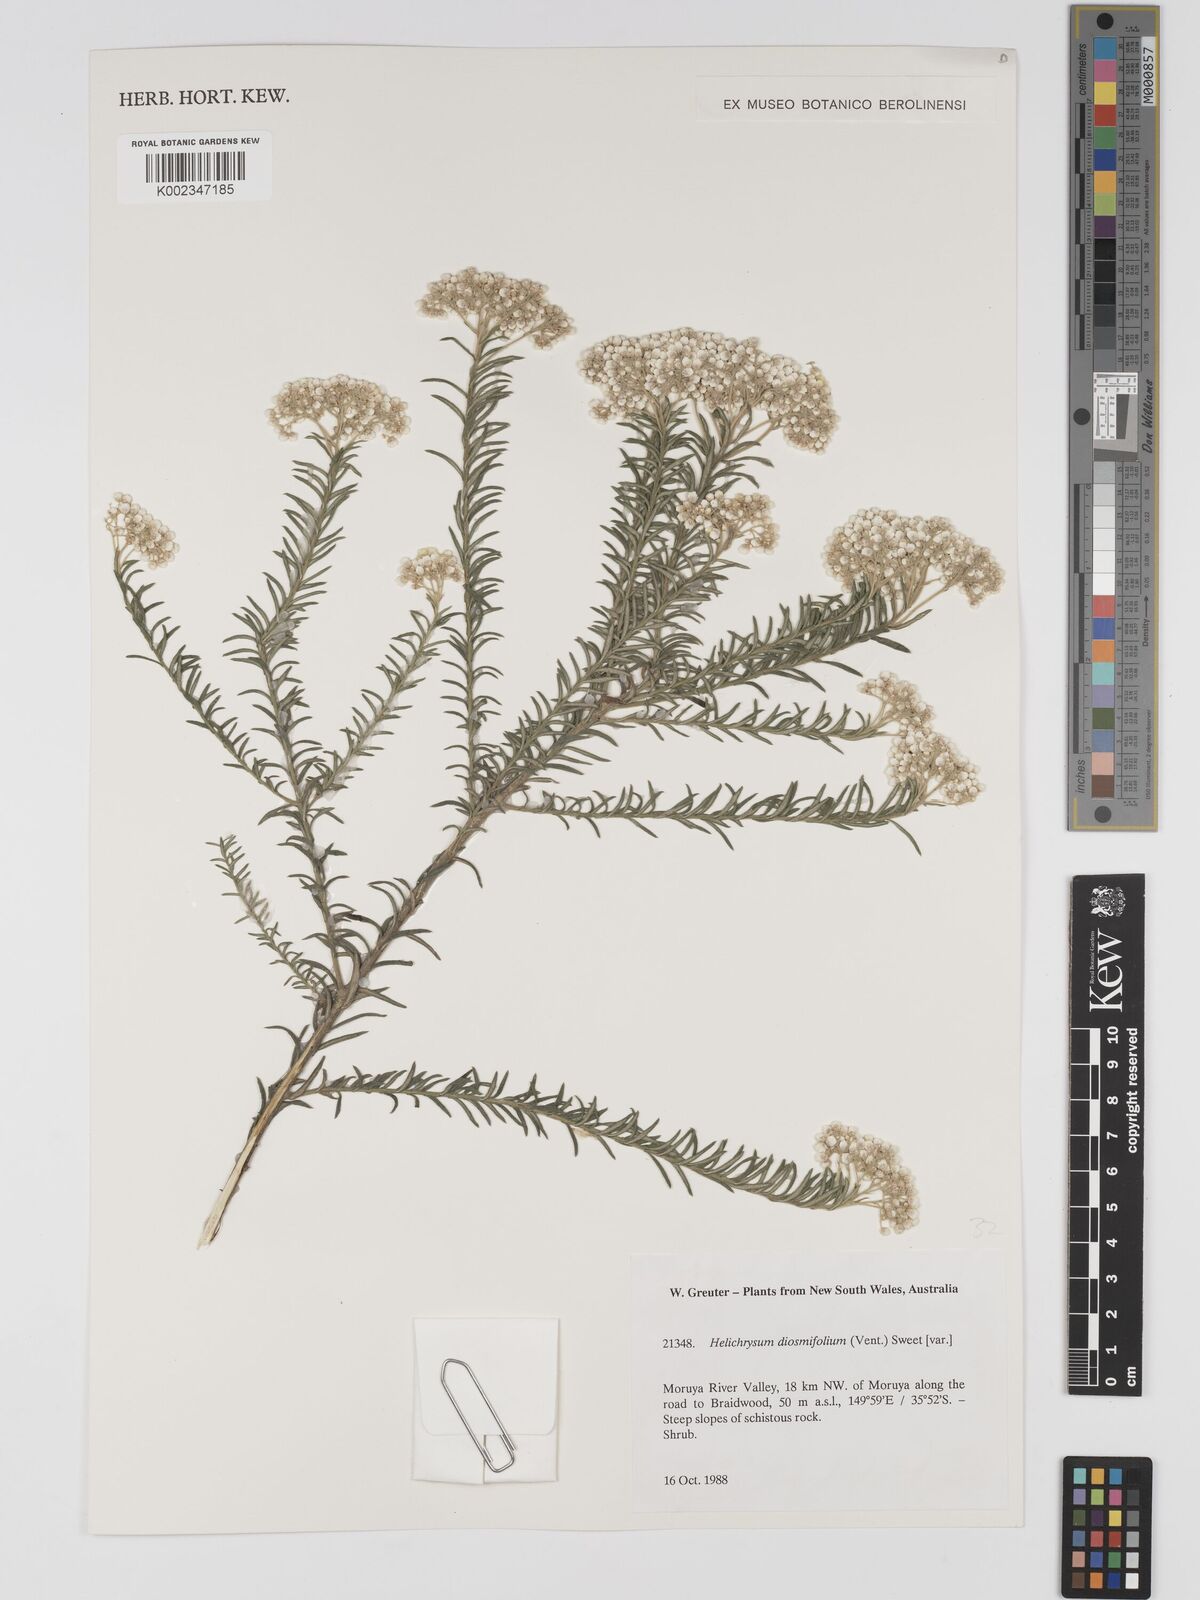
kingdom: Plantae
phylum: Tracheophyta
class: Magnoliopsida
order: Asterales
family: Asteraceae
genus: Ozothamnus
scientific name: Ozothamnus diosmifolius
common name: White-dogwood
